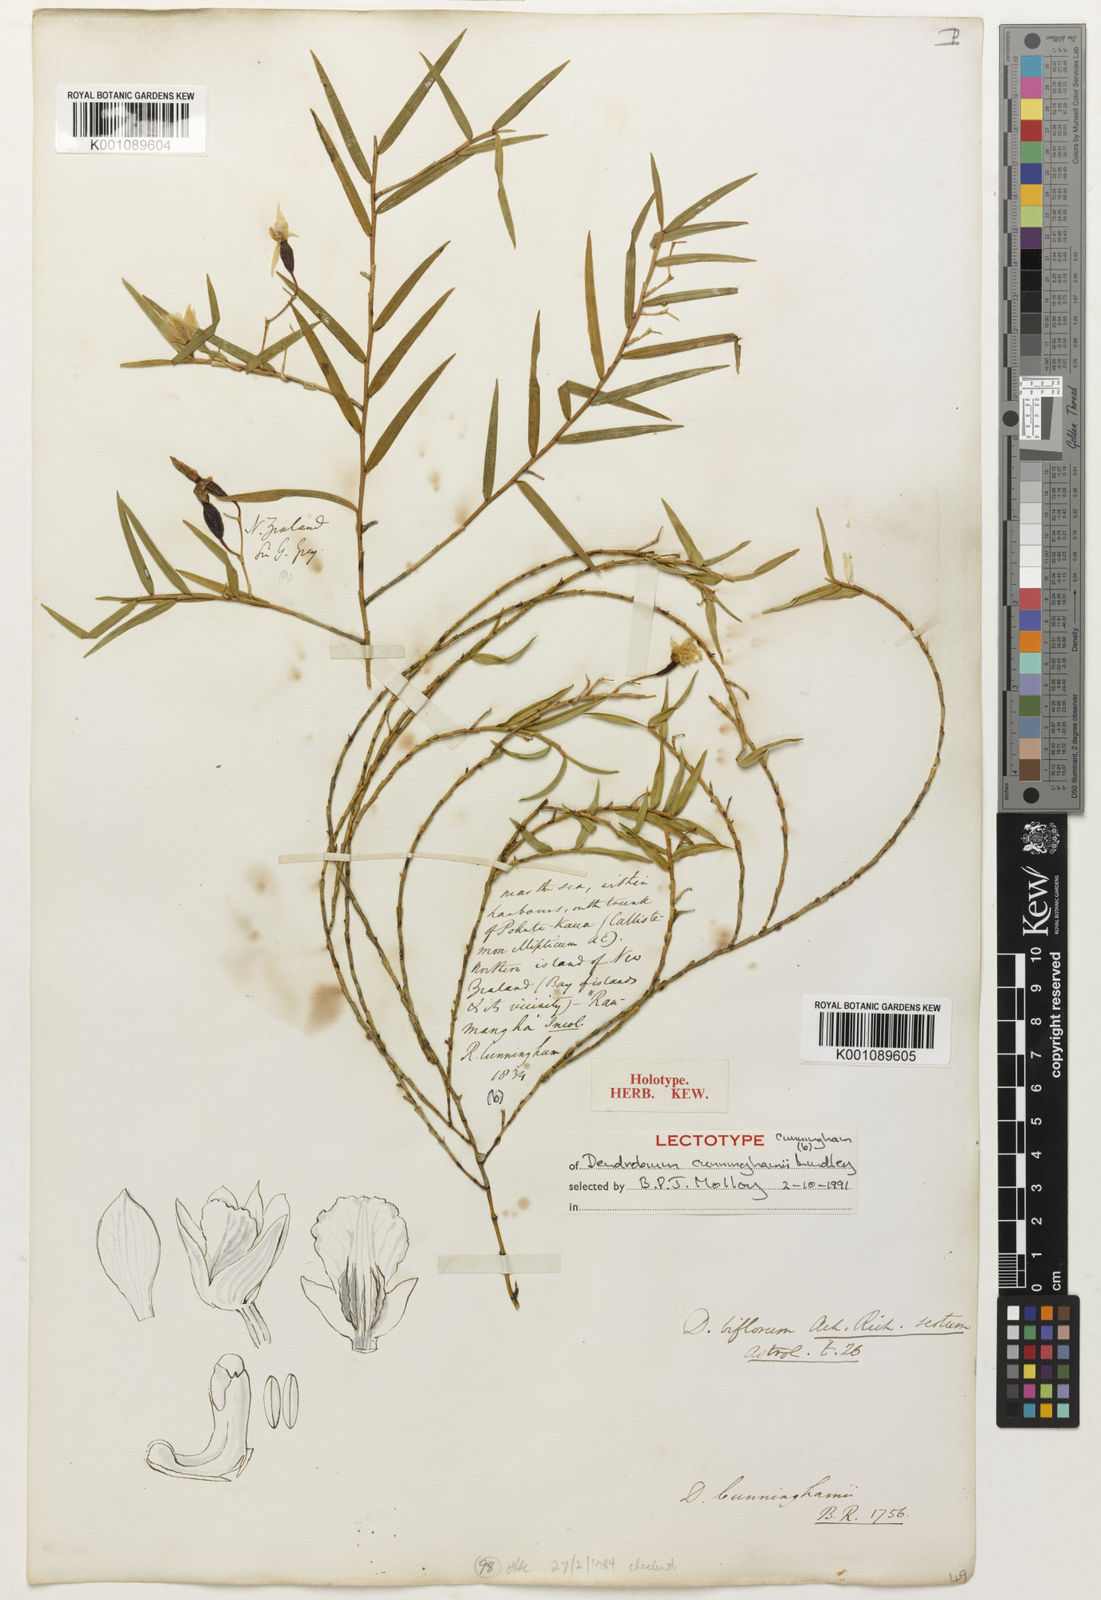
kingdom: Plantae
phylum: Tracheophyta
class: Liliopsida
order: Asparagales
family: Orchidaceae
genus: Dendrobium
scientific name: Dendrobium cunninghamii
